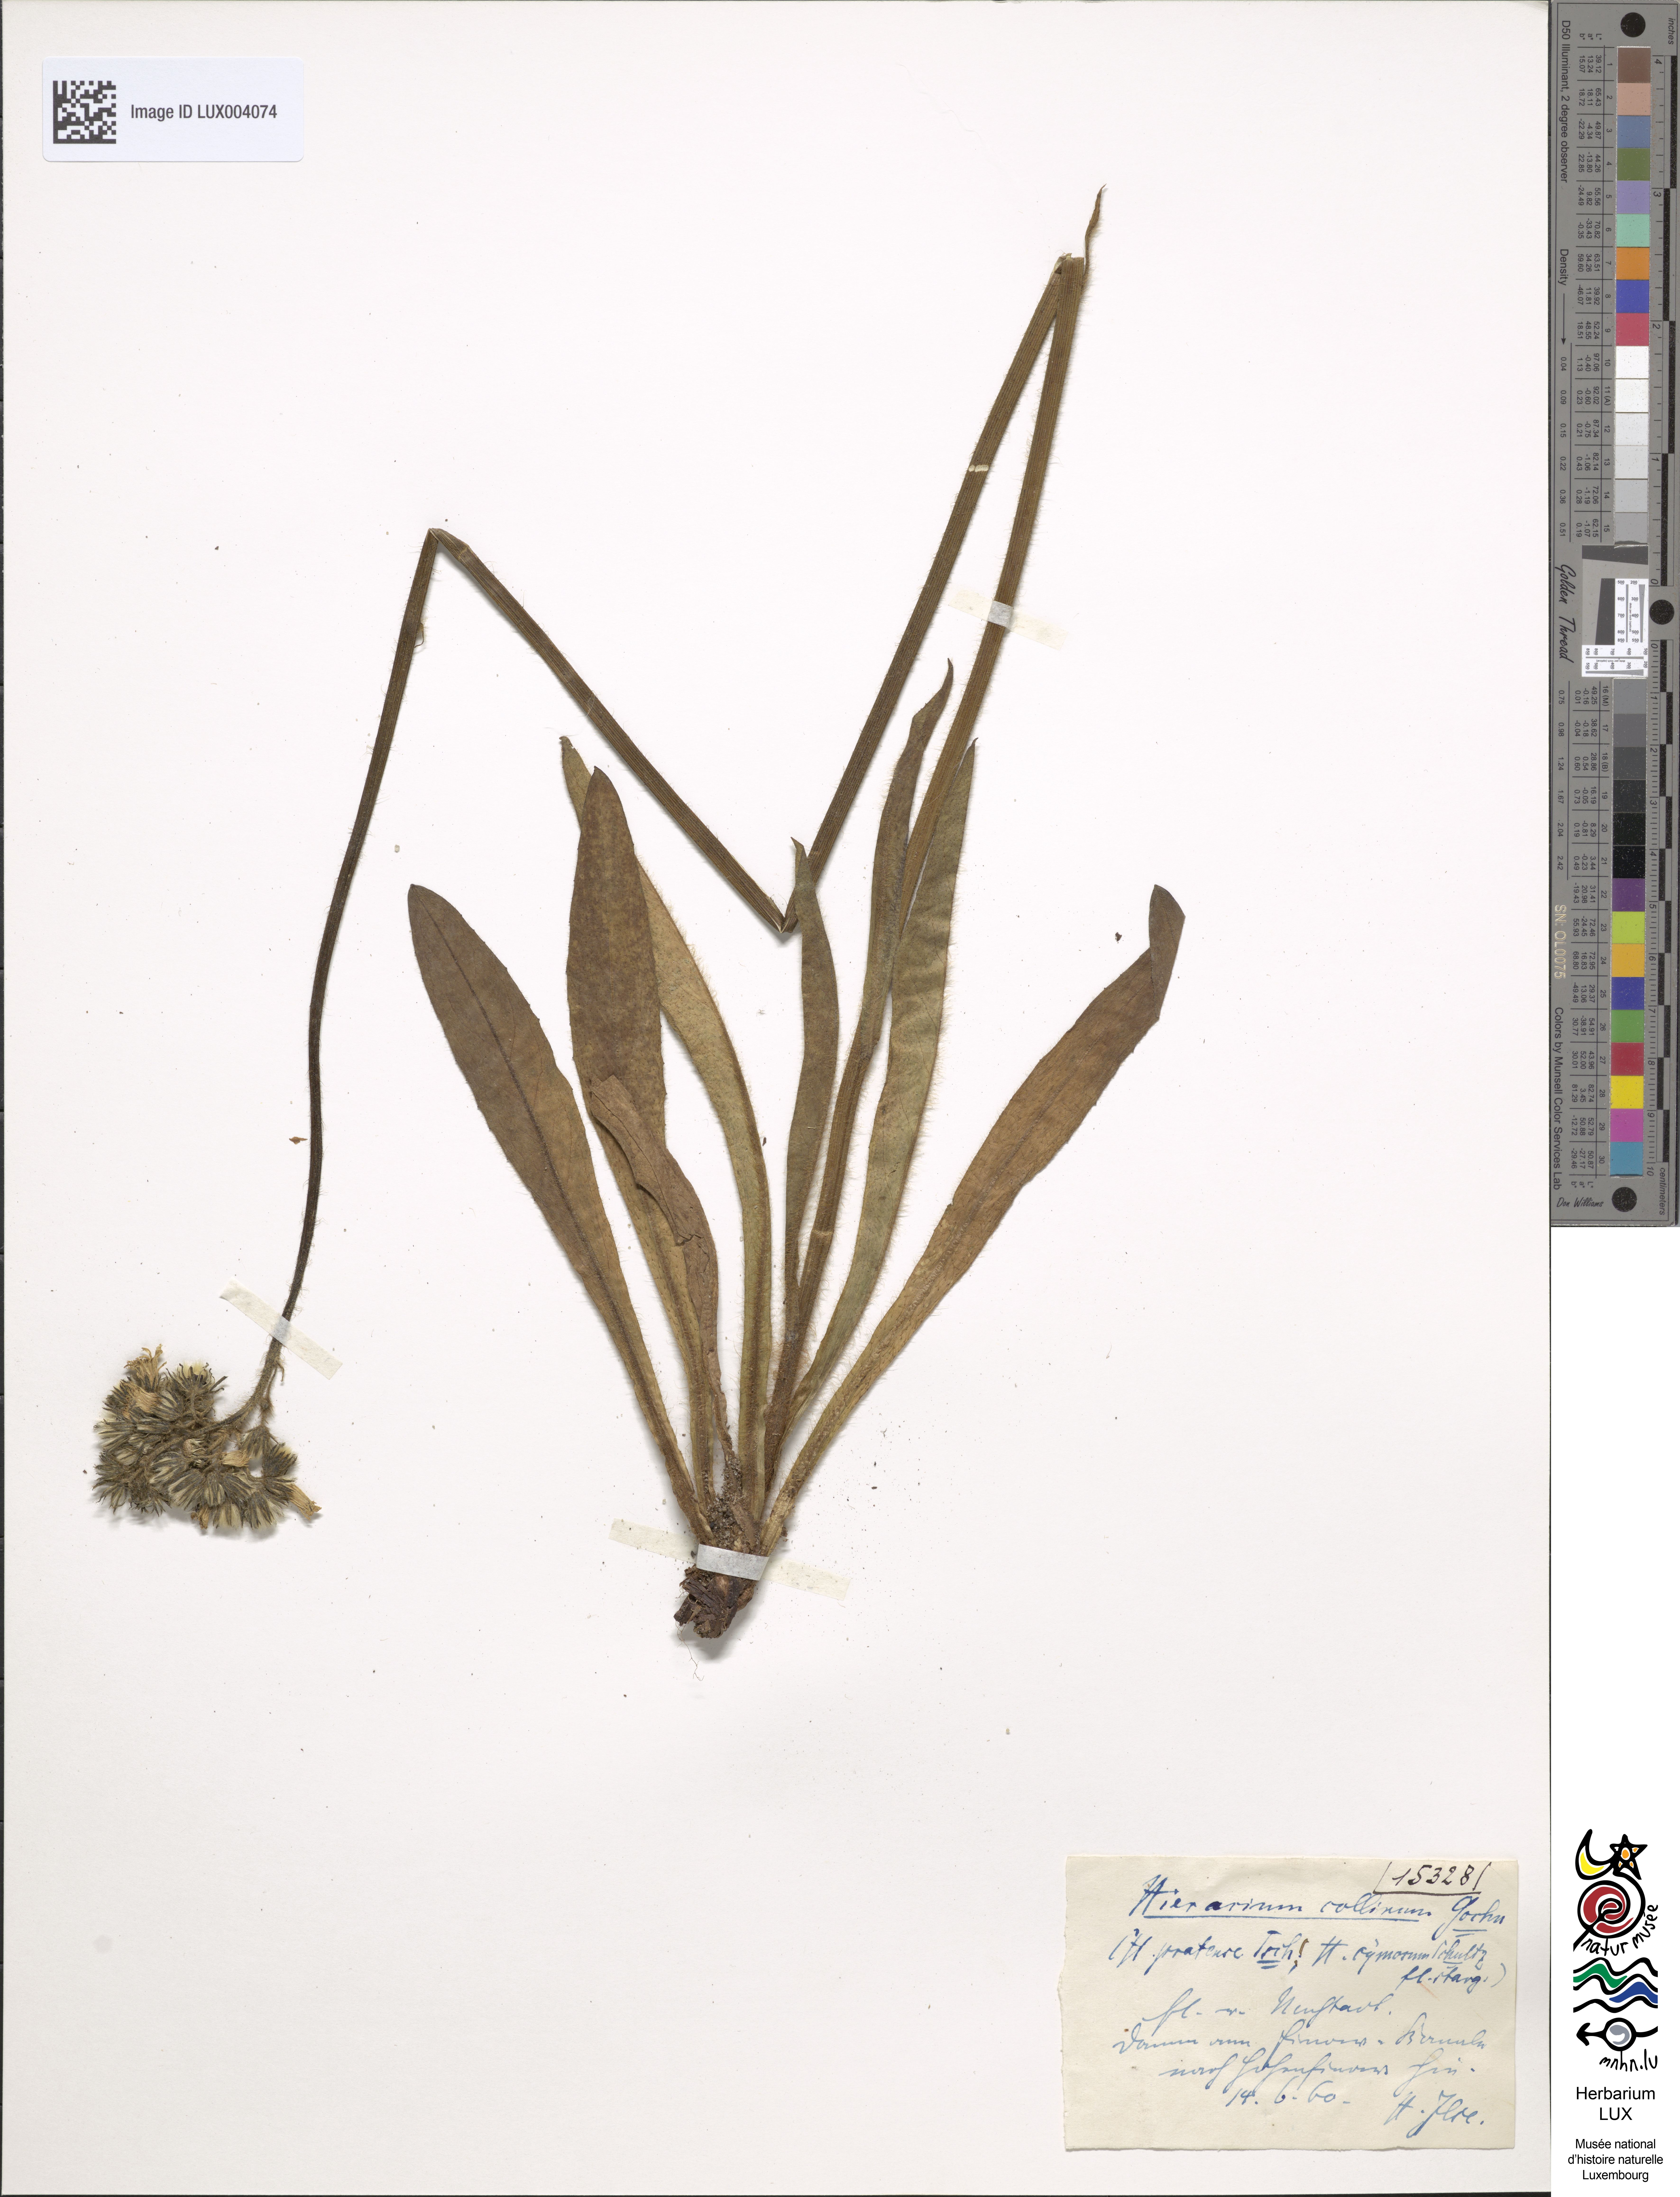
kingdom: Plantae
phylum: Tracheophyta
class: Magnoliopsida
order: Asterales
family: Asteraceae
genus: Pilosella
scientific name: Pilosella caespitosa
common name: Yellow fox-and-cubs
